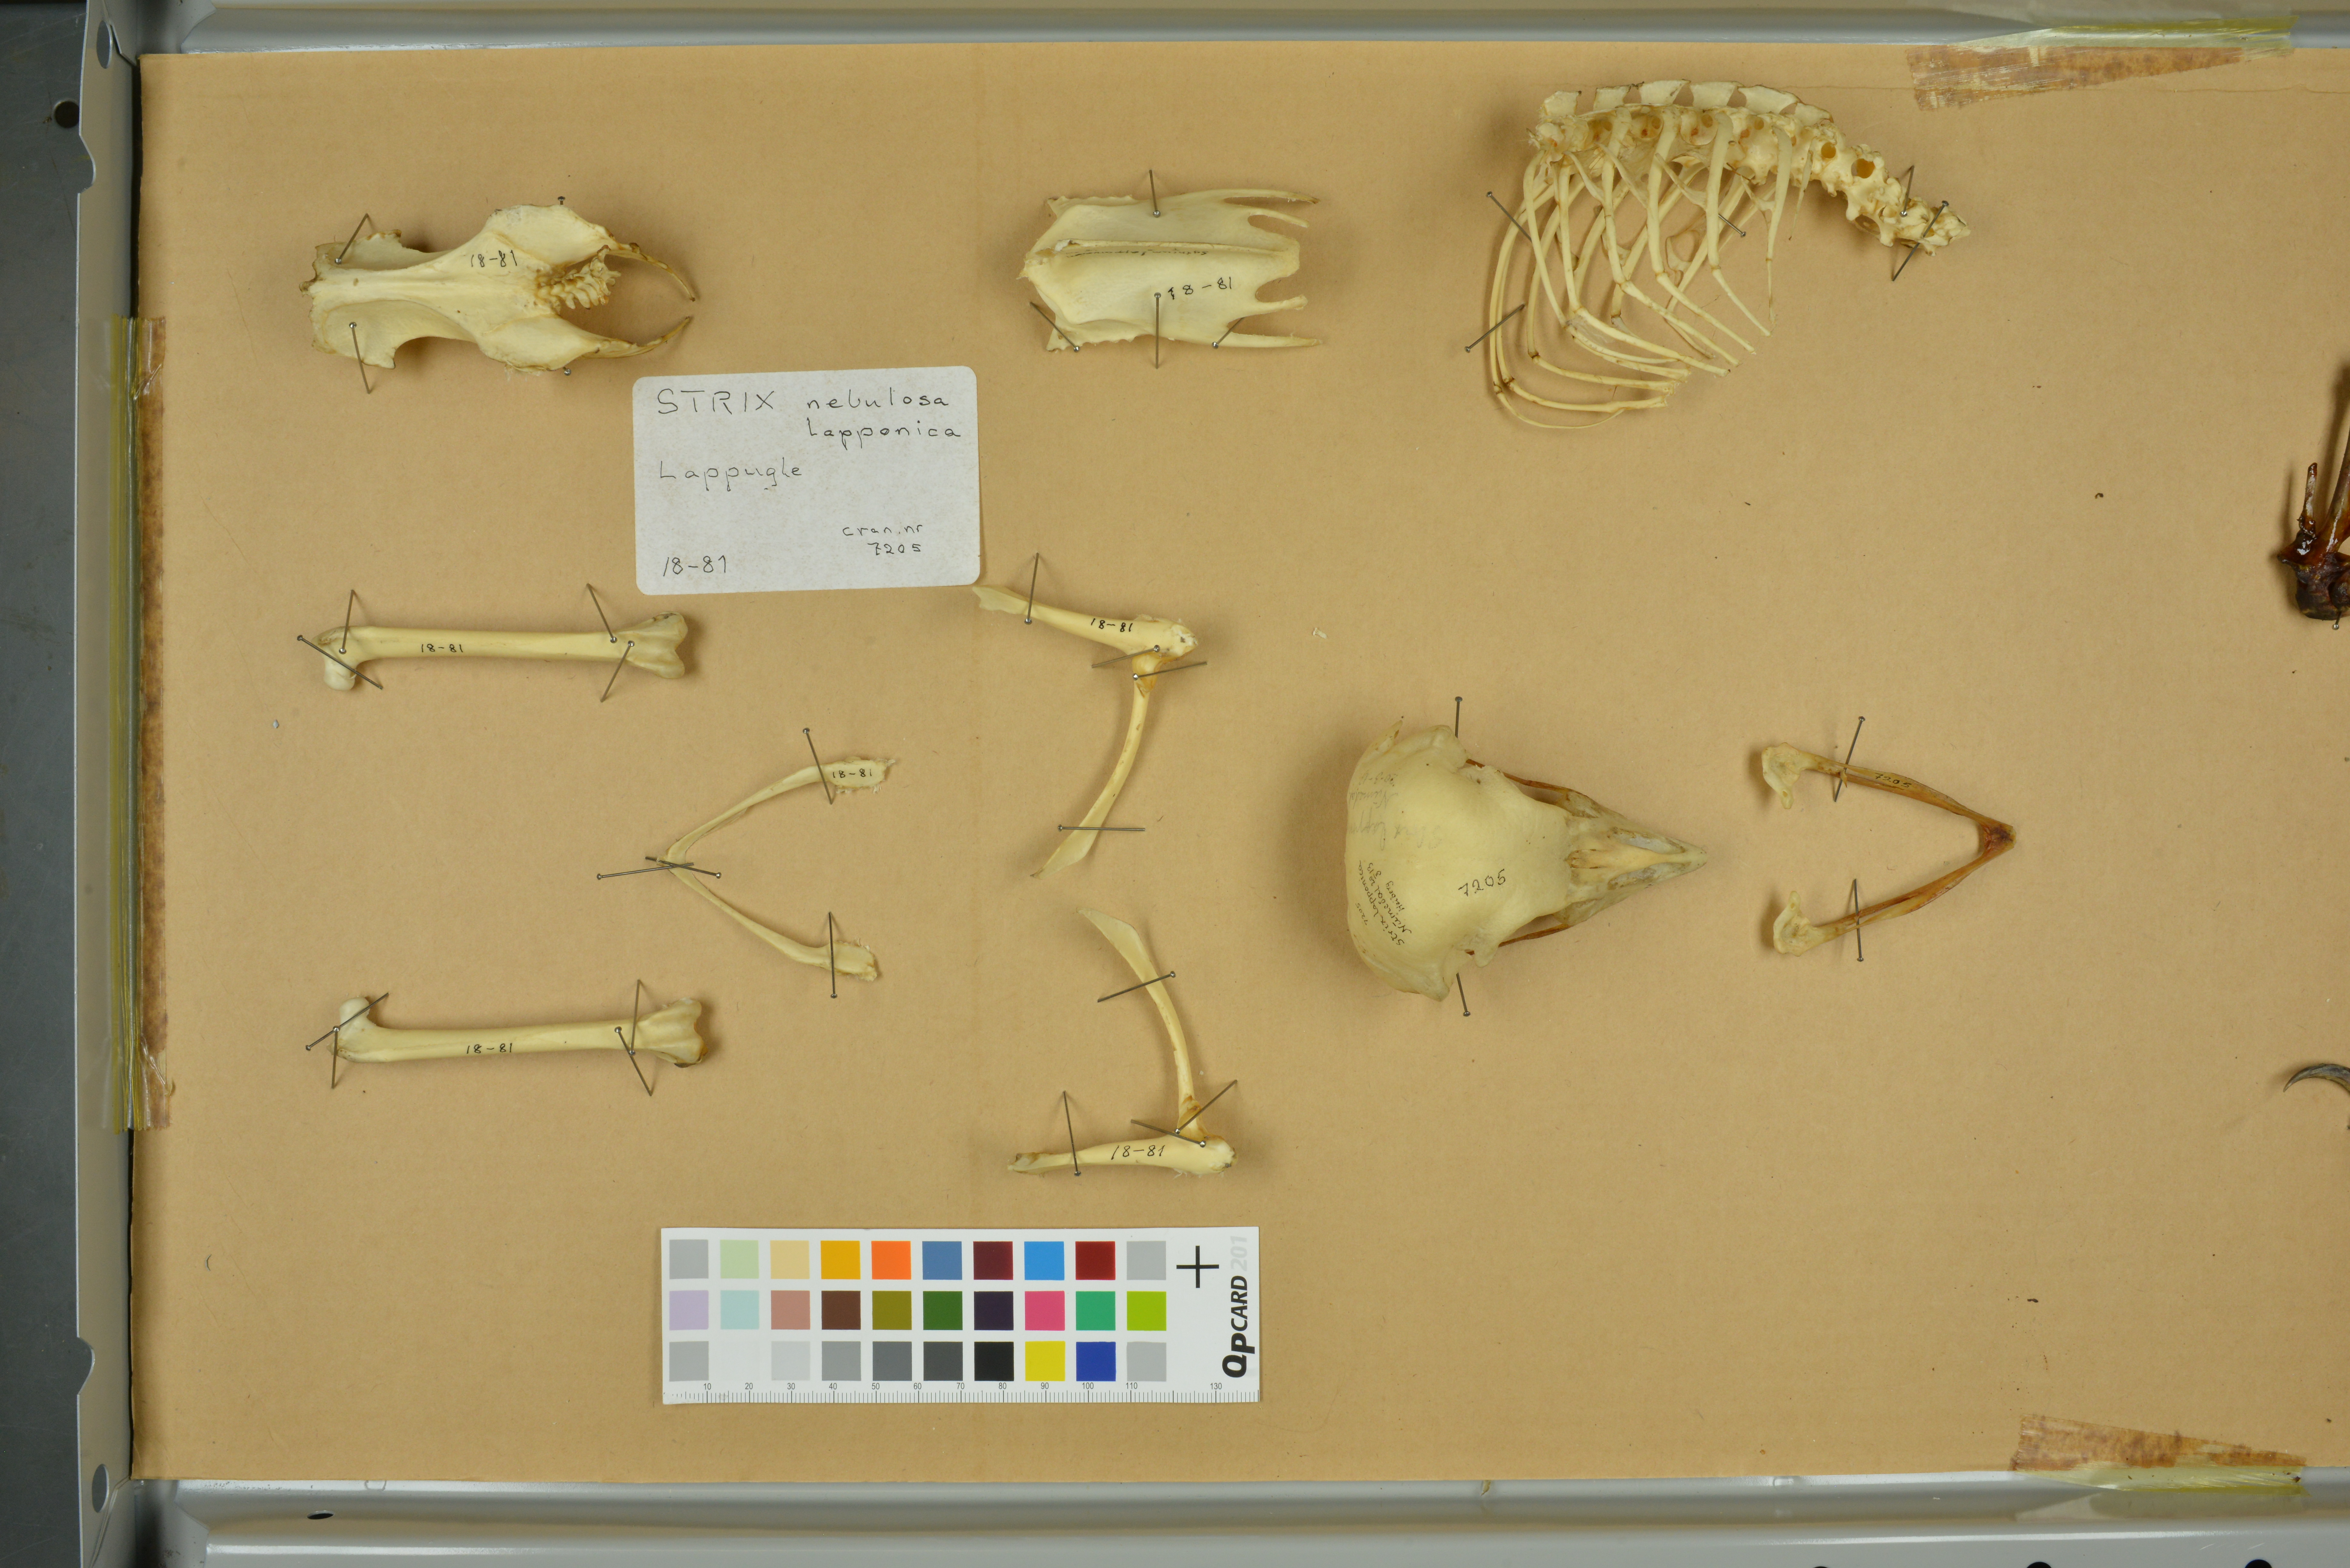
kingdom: Animalia
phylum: Chordata
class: Aves
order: Strigiformes
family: Strigidae
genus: Strix
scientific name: Strix nebulosa
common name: Great grey owl
